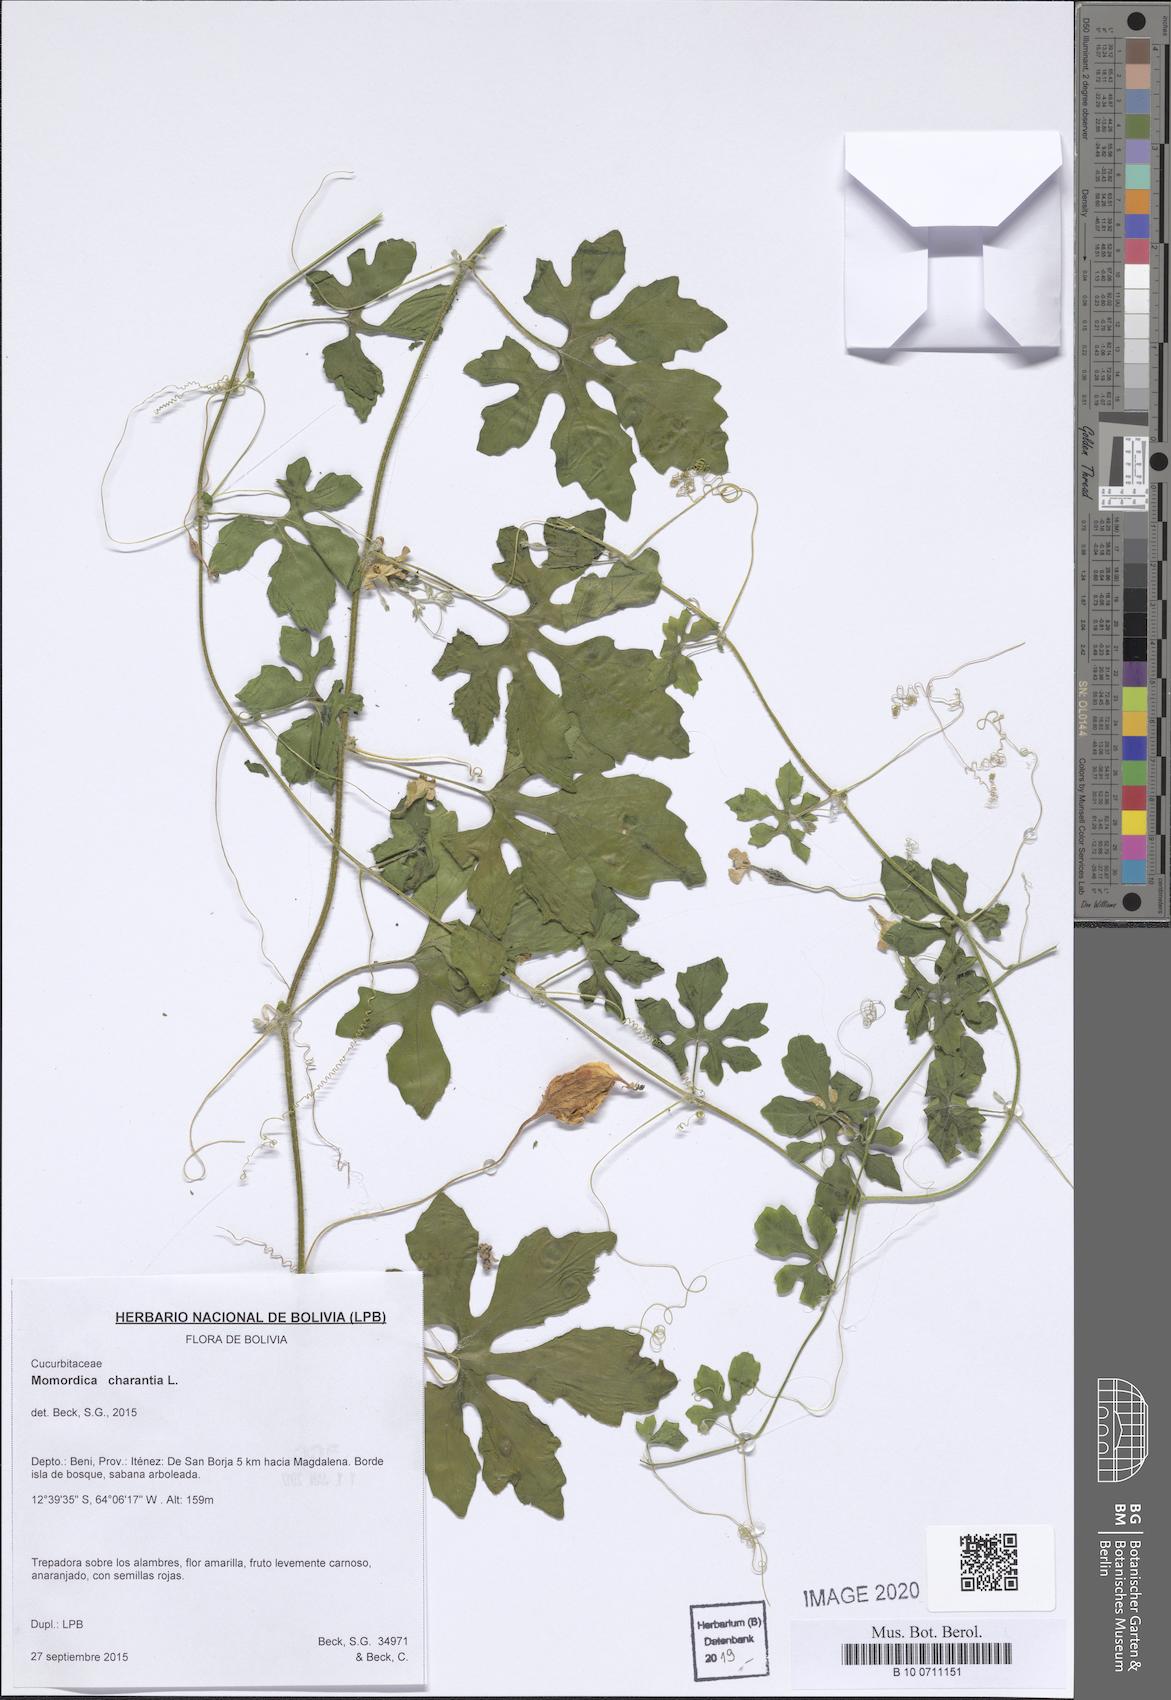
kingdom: Plantae
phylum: Tracheophyta
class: Magnoliopsida
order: Cucurbitales
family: Cucurbitaceae
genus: Momordica
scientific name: Momordica charantia
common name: Balsampear
